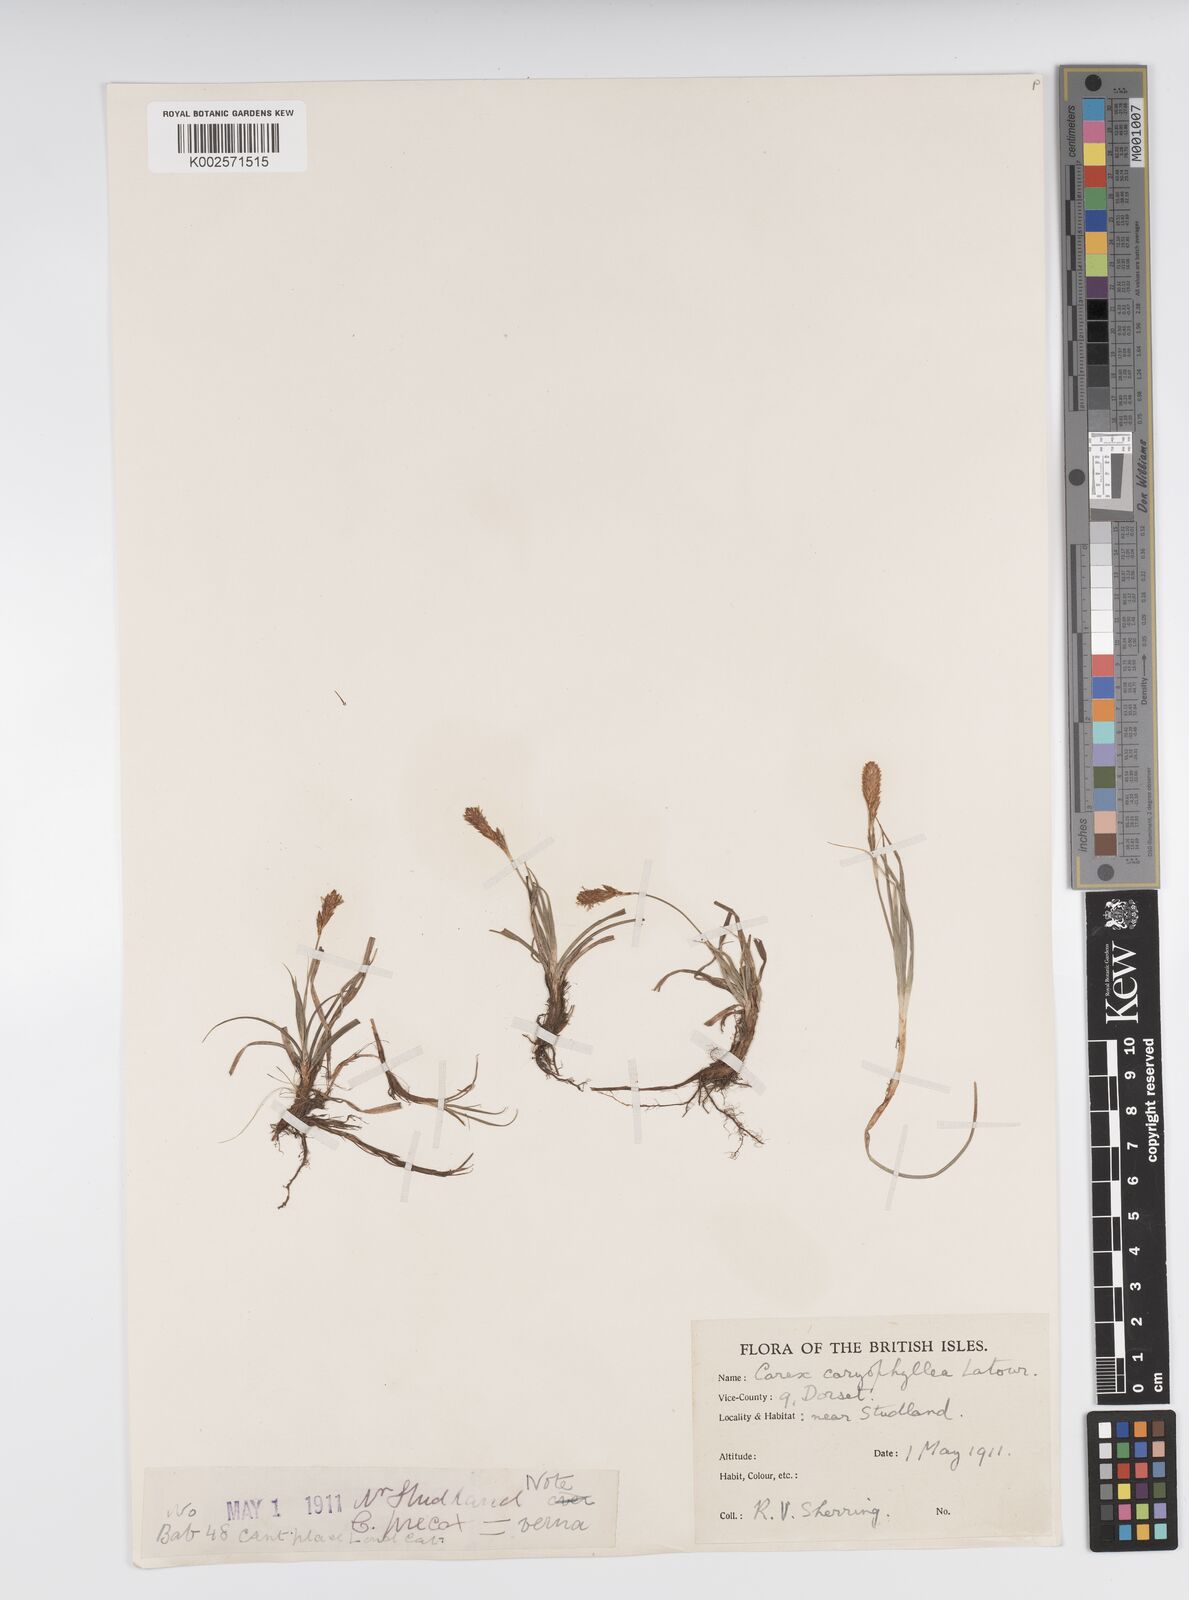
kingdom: Plantae
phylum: Tracheophyta
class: Liliopsida
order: Poales
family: Cyperaceae
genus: Carex
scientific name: Carex caryophyllea
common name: Spring sedge
